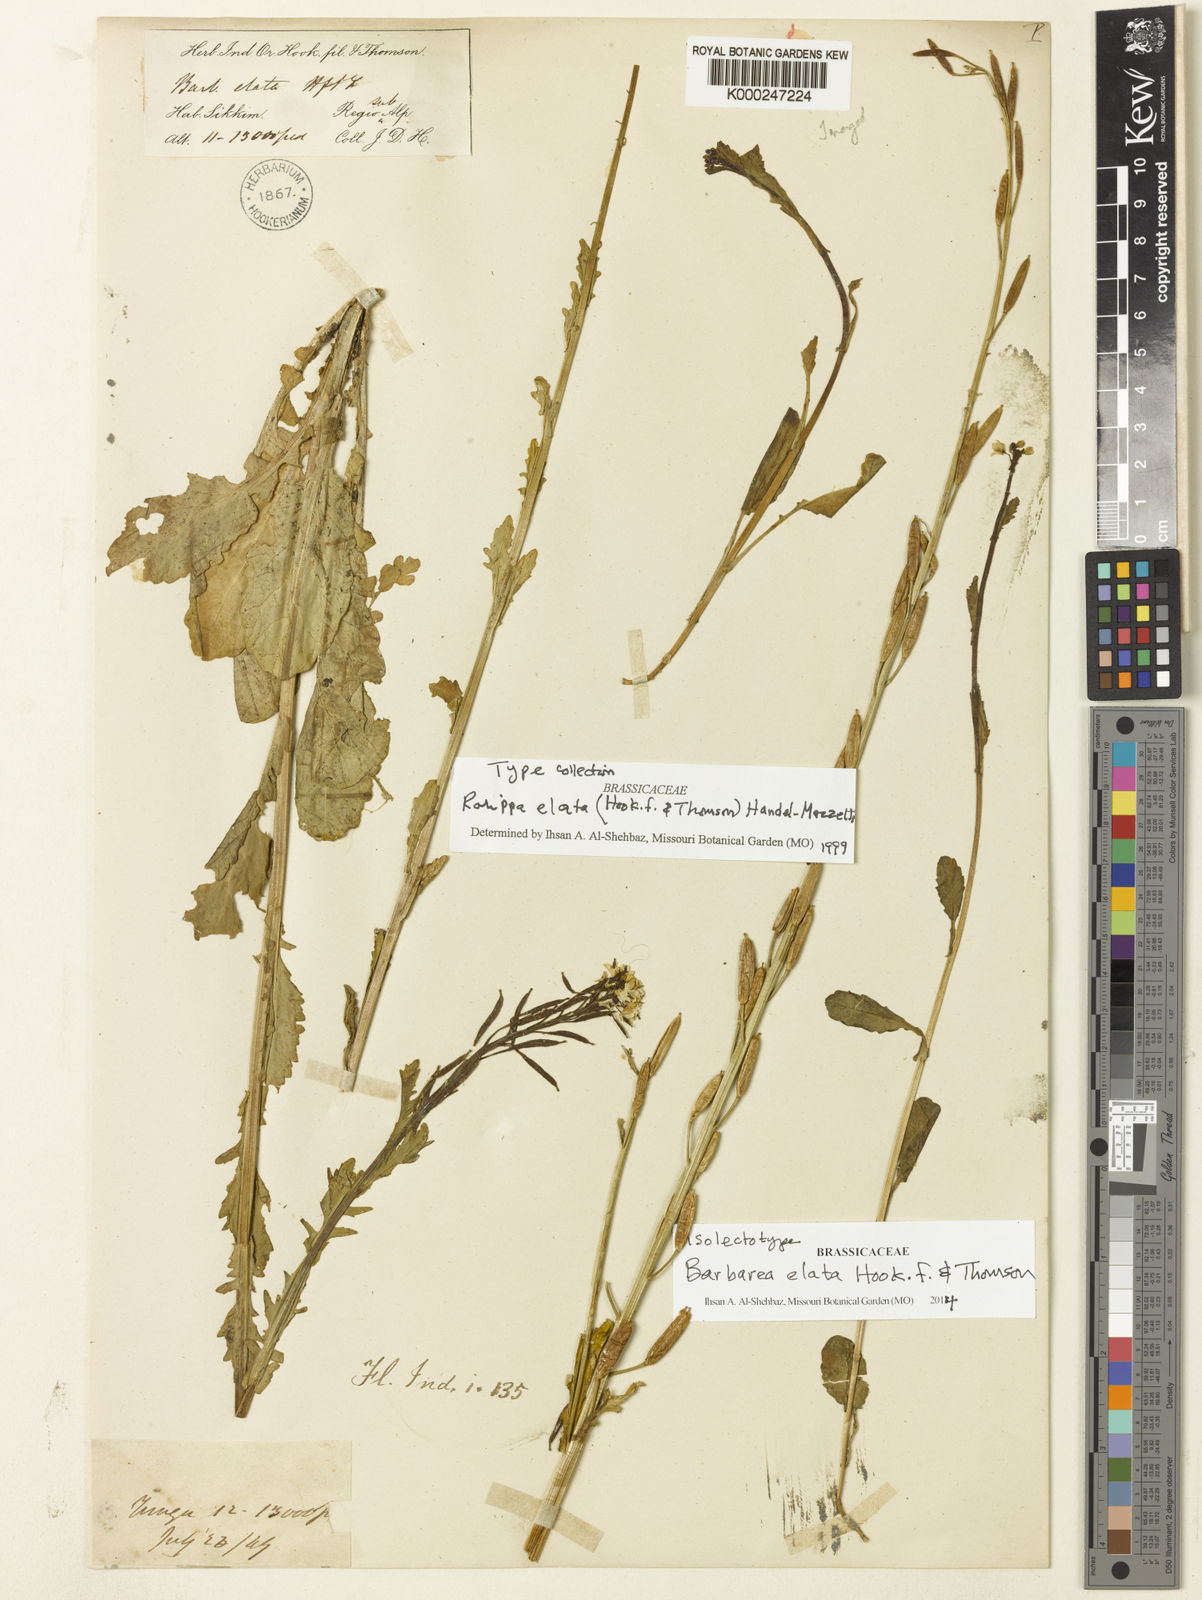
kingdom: Plantae
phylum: Tracheophyta
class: Magnoliopsida
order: Brassicales
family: Brassicaceae
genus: Rorippa
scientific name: Rorippa elata
